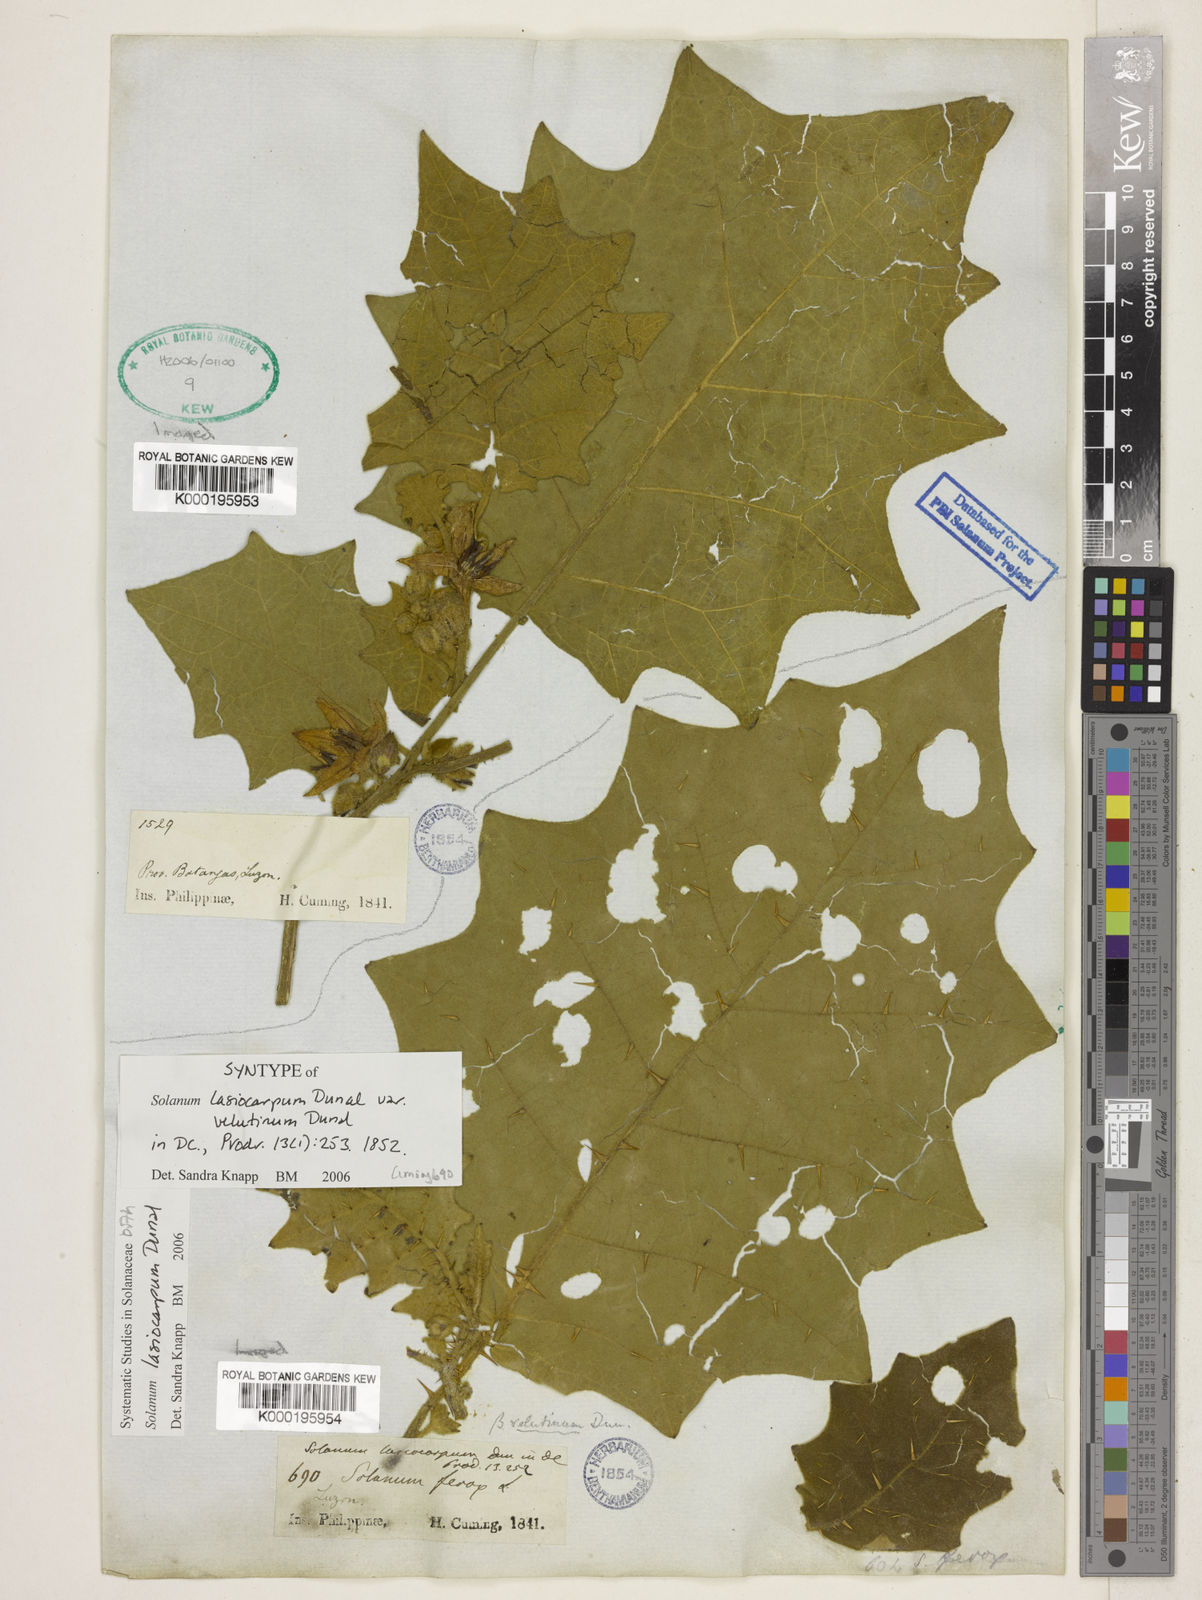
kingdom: Plantae
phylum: Tracheophyta
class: Magnoliopsida
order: Solanales
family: Solanaceae
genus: Solanum
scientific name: Solanum lasiocarpum
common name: Indian nightshade
